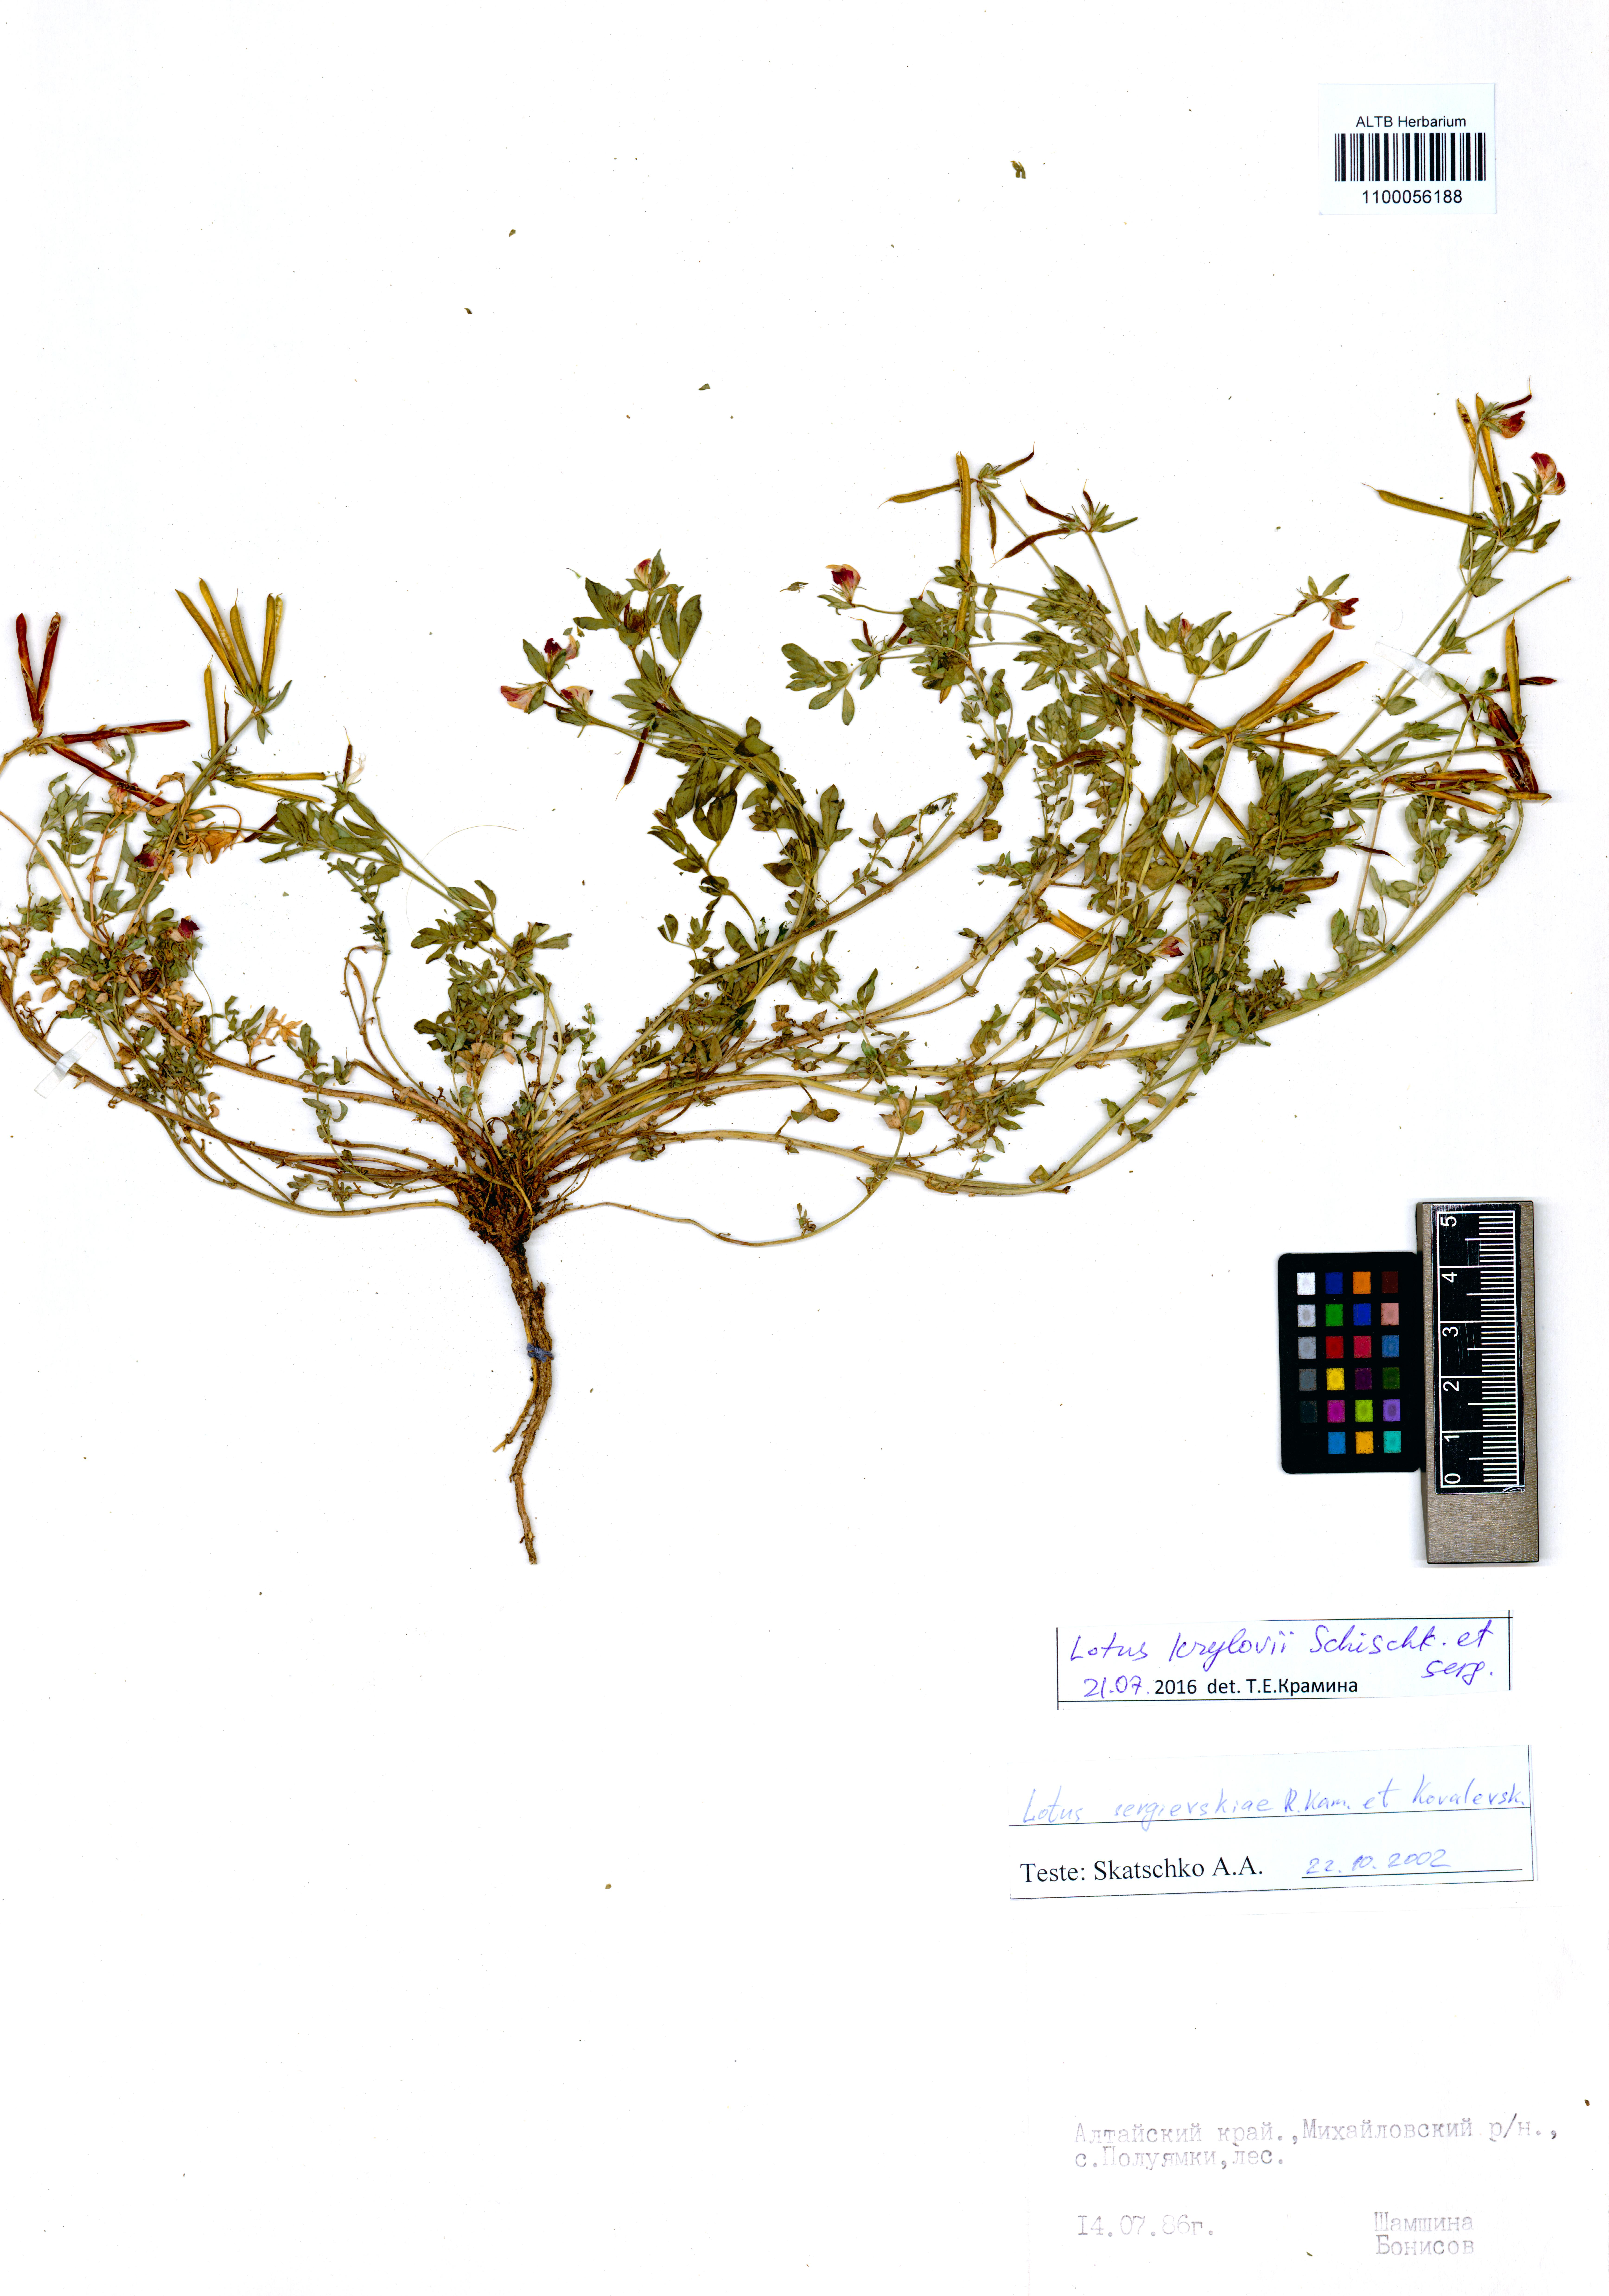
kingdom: Plantae
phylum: Tracheophyta
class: Magnoliopsida
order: Fabales
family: Fabaceae
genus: Lotus
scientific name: Lotus krylovii
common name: Krylov's bird's-foot trefoil
